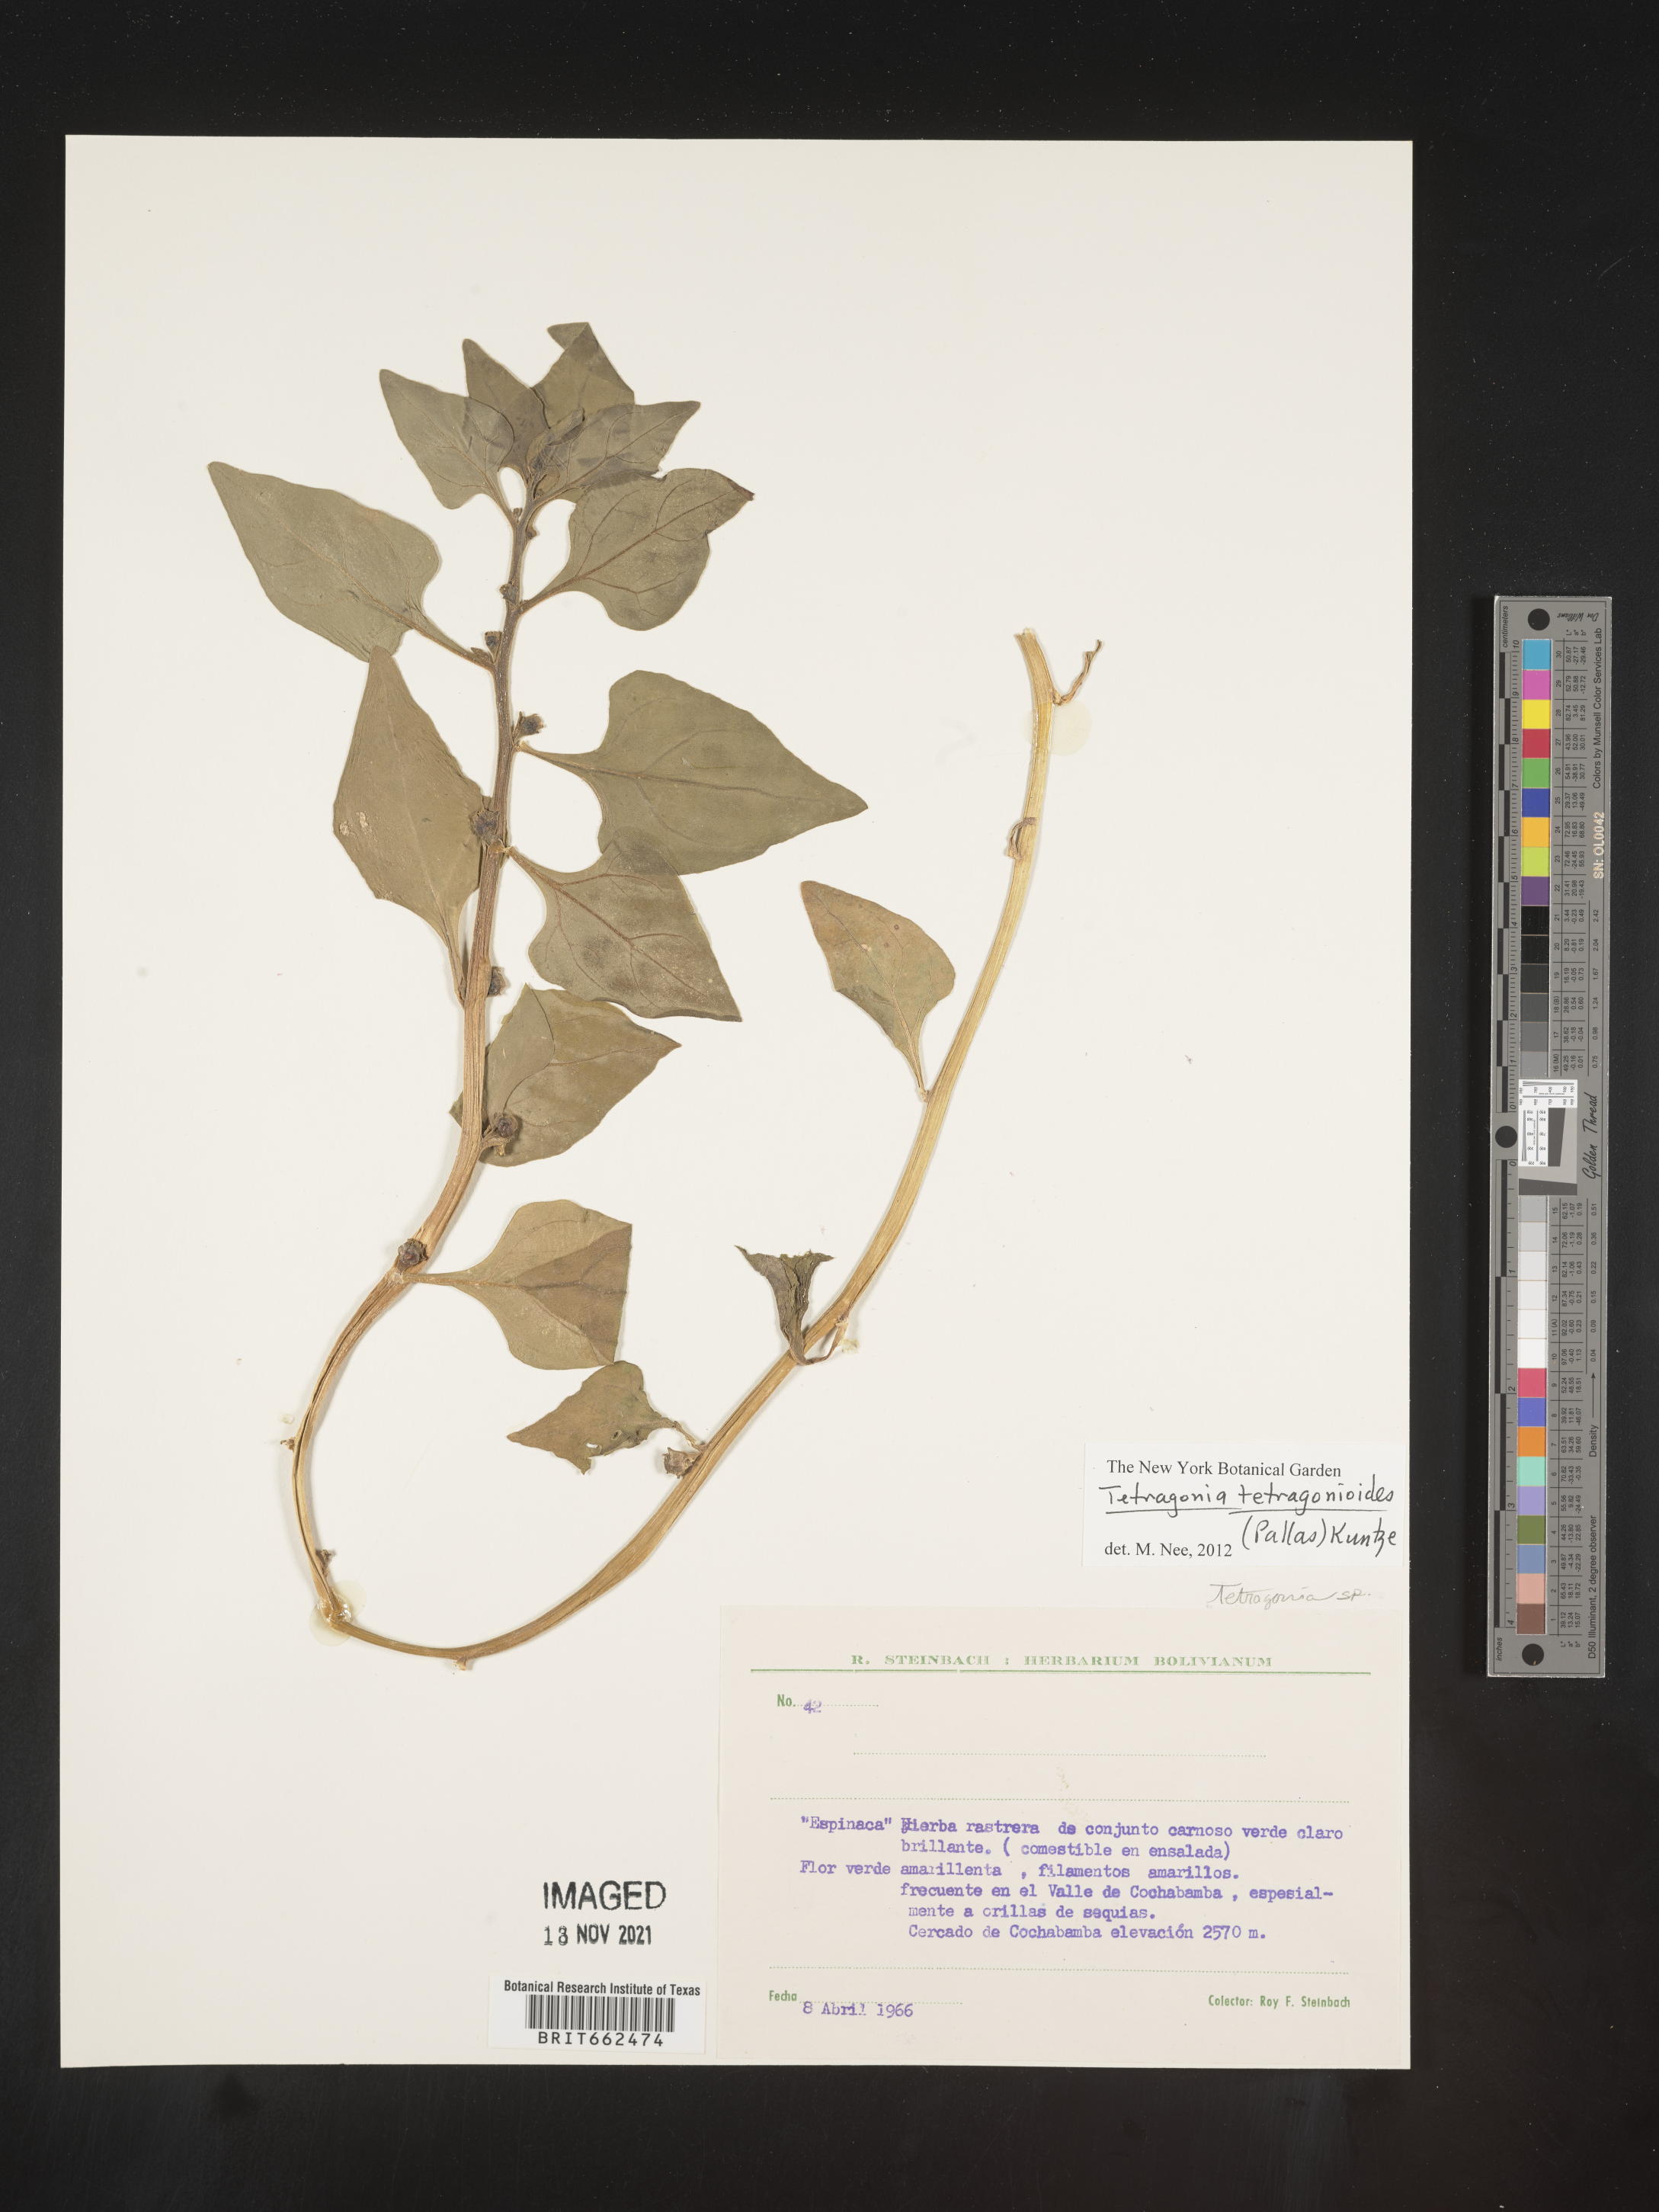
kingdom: Plantae
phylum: Tracheophyta
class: Magnoliopsida
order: Caryophyllales
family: Aizoaceae
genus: Tetragonia
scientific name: Tetragonia
